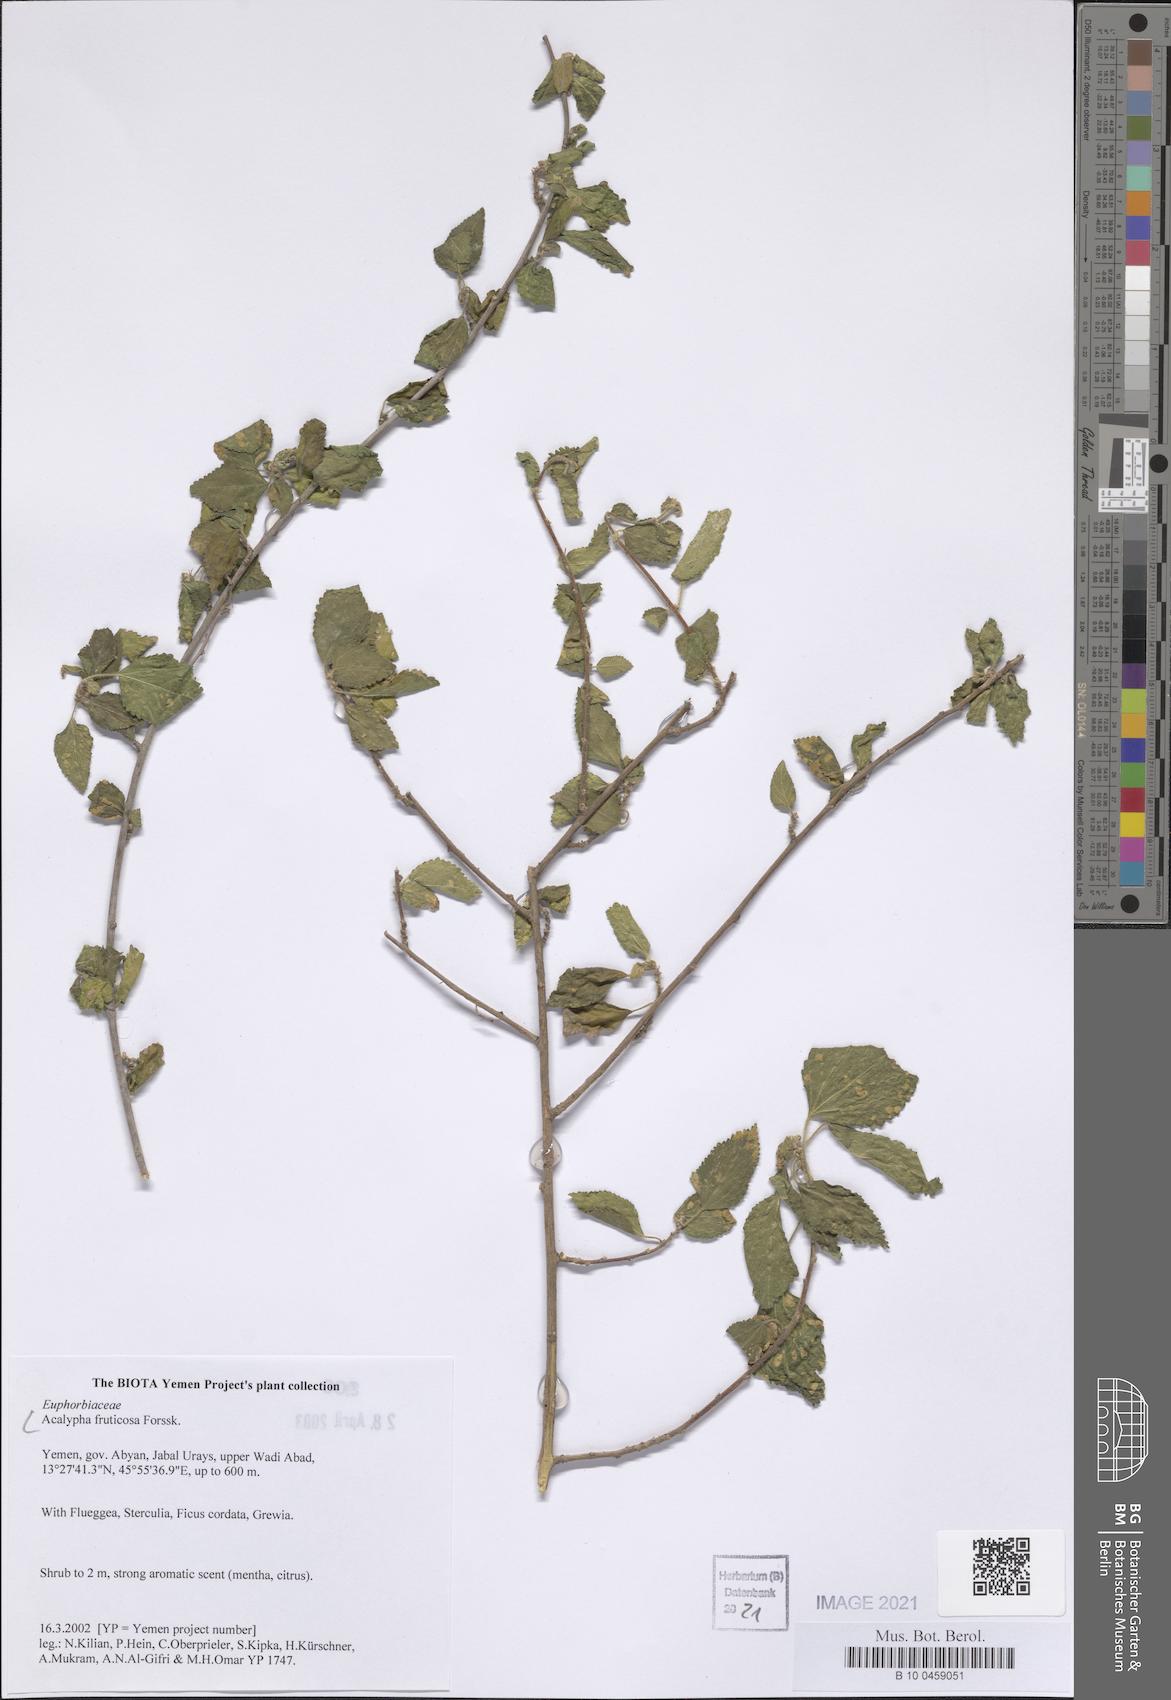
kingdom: Plantae
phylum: Tracheophyta
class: Magnoliopsida
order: Malpighiales
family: Euphorbiaceae
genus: Acalypha
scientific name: Acalypha fruticosa
